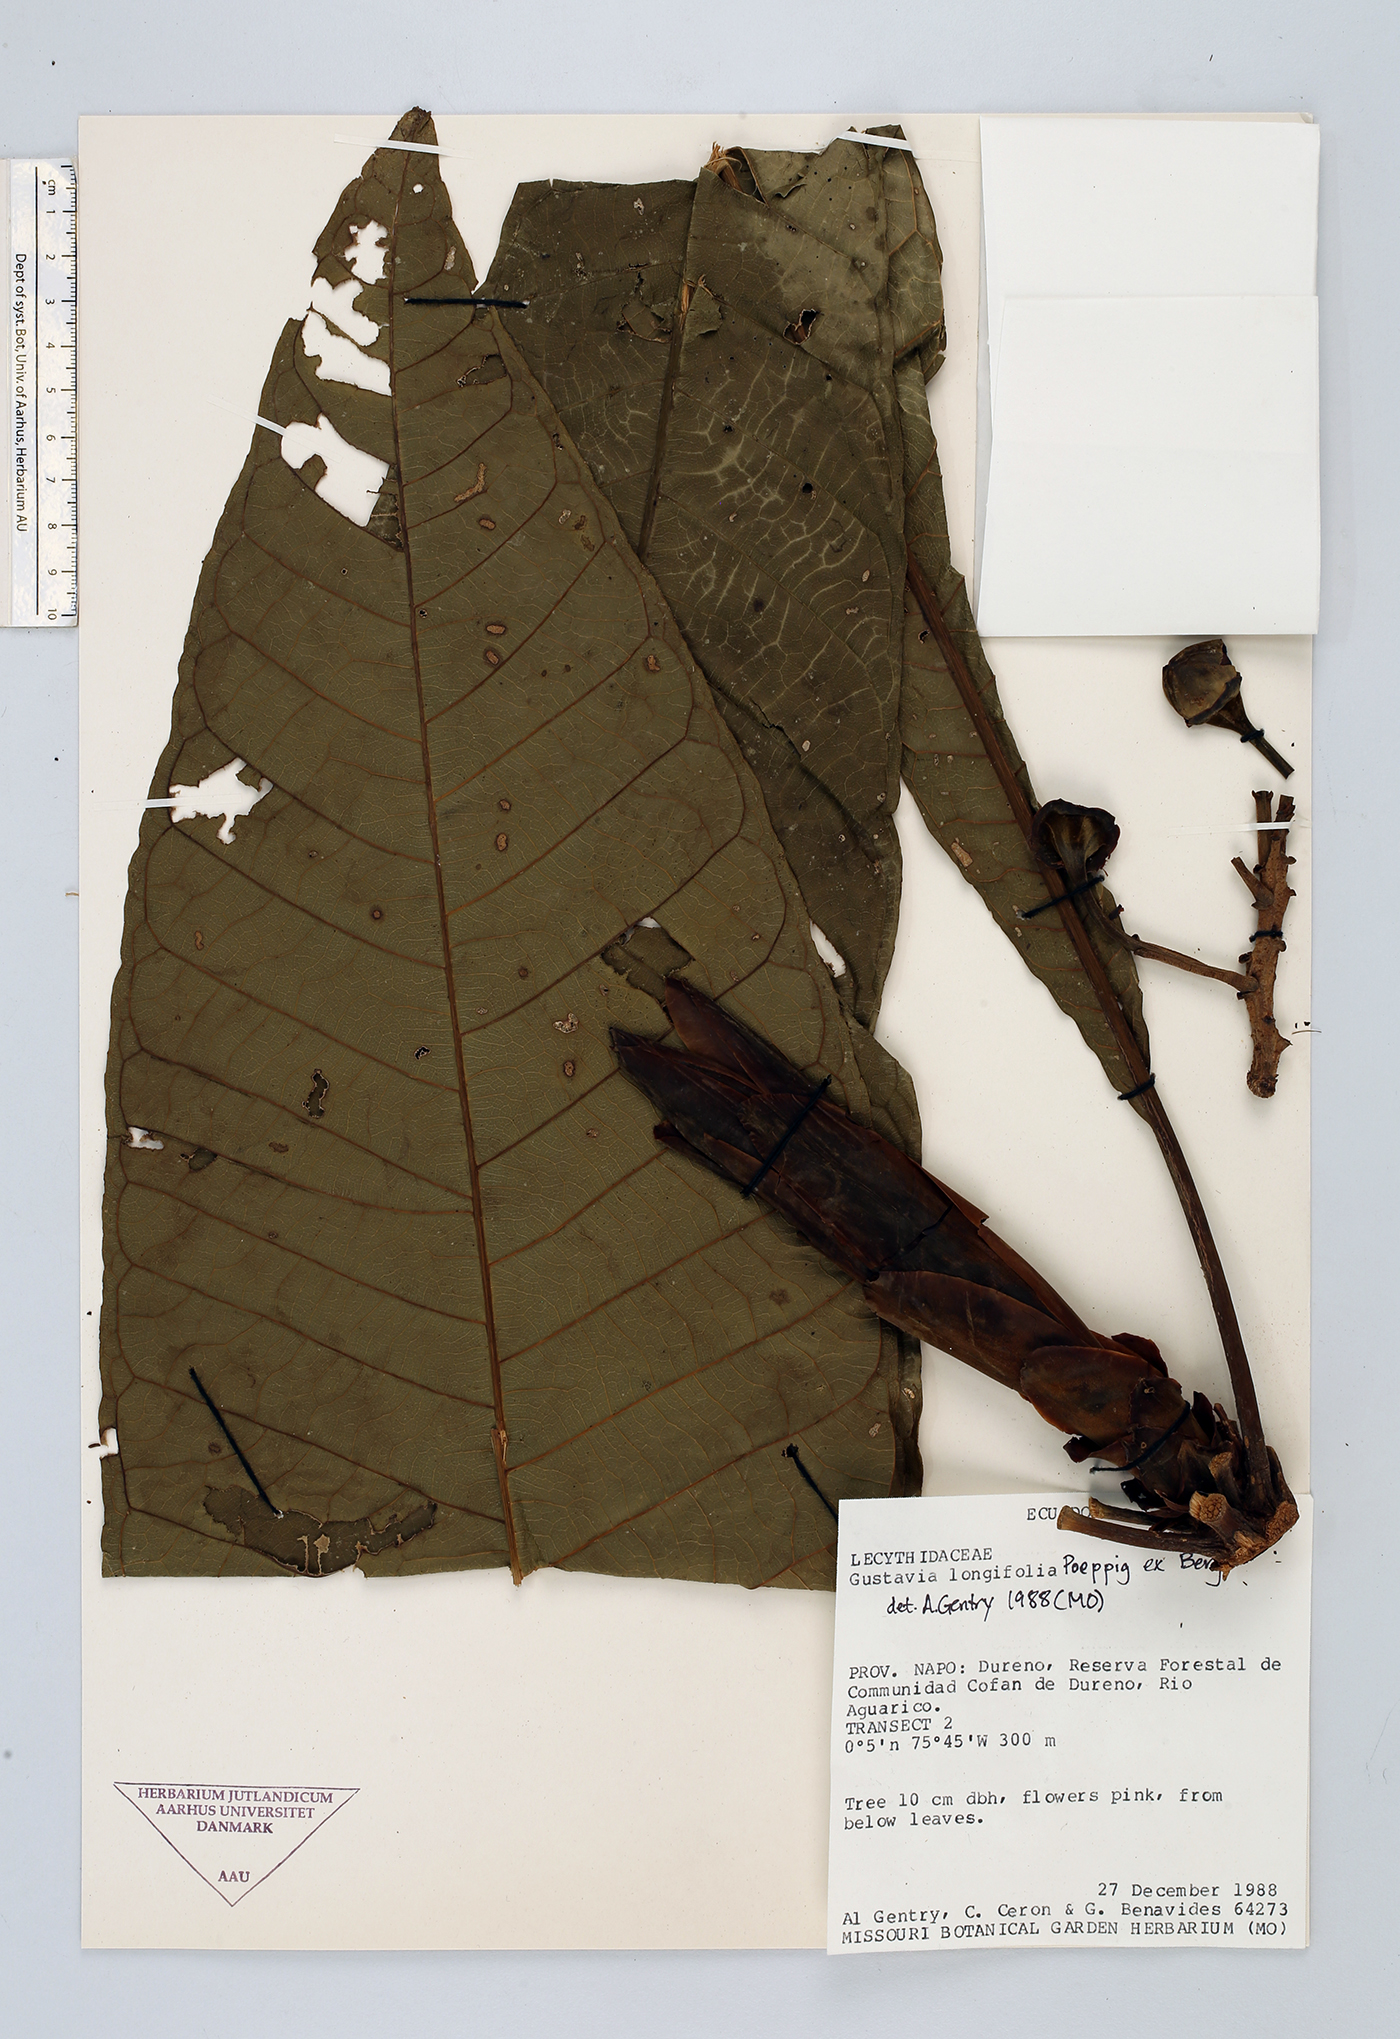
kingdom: Plantae
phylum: Tracheophyta
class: Magnoliopsida
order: Ericales
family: Lecythidaceae
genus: Gustavia
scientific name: Gustavia longifolia
